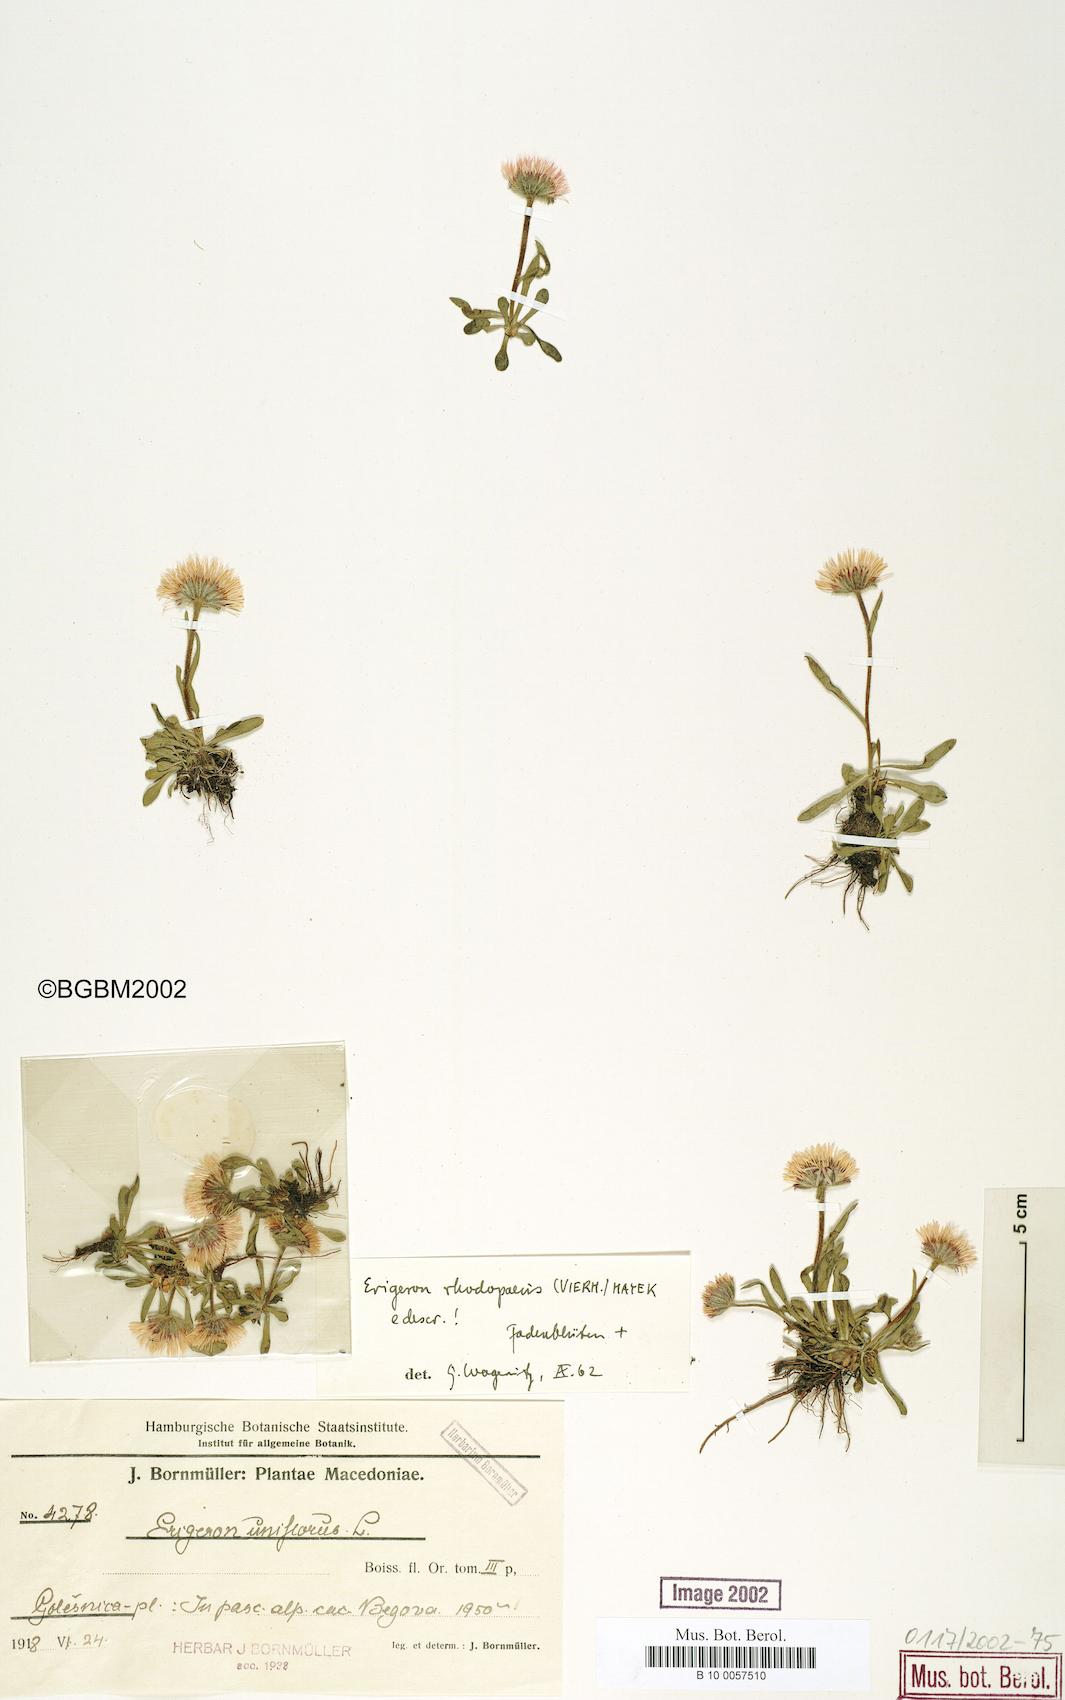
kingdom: Plantae
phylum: Tracheophyta
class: Magnoliopsida
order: Asterales
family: Asteraceae
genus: Erigeron
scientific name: Erigeron alpinus
